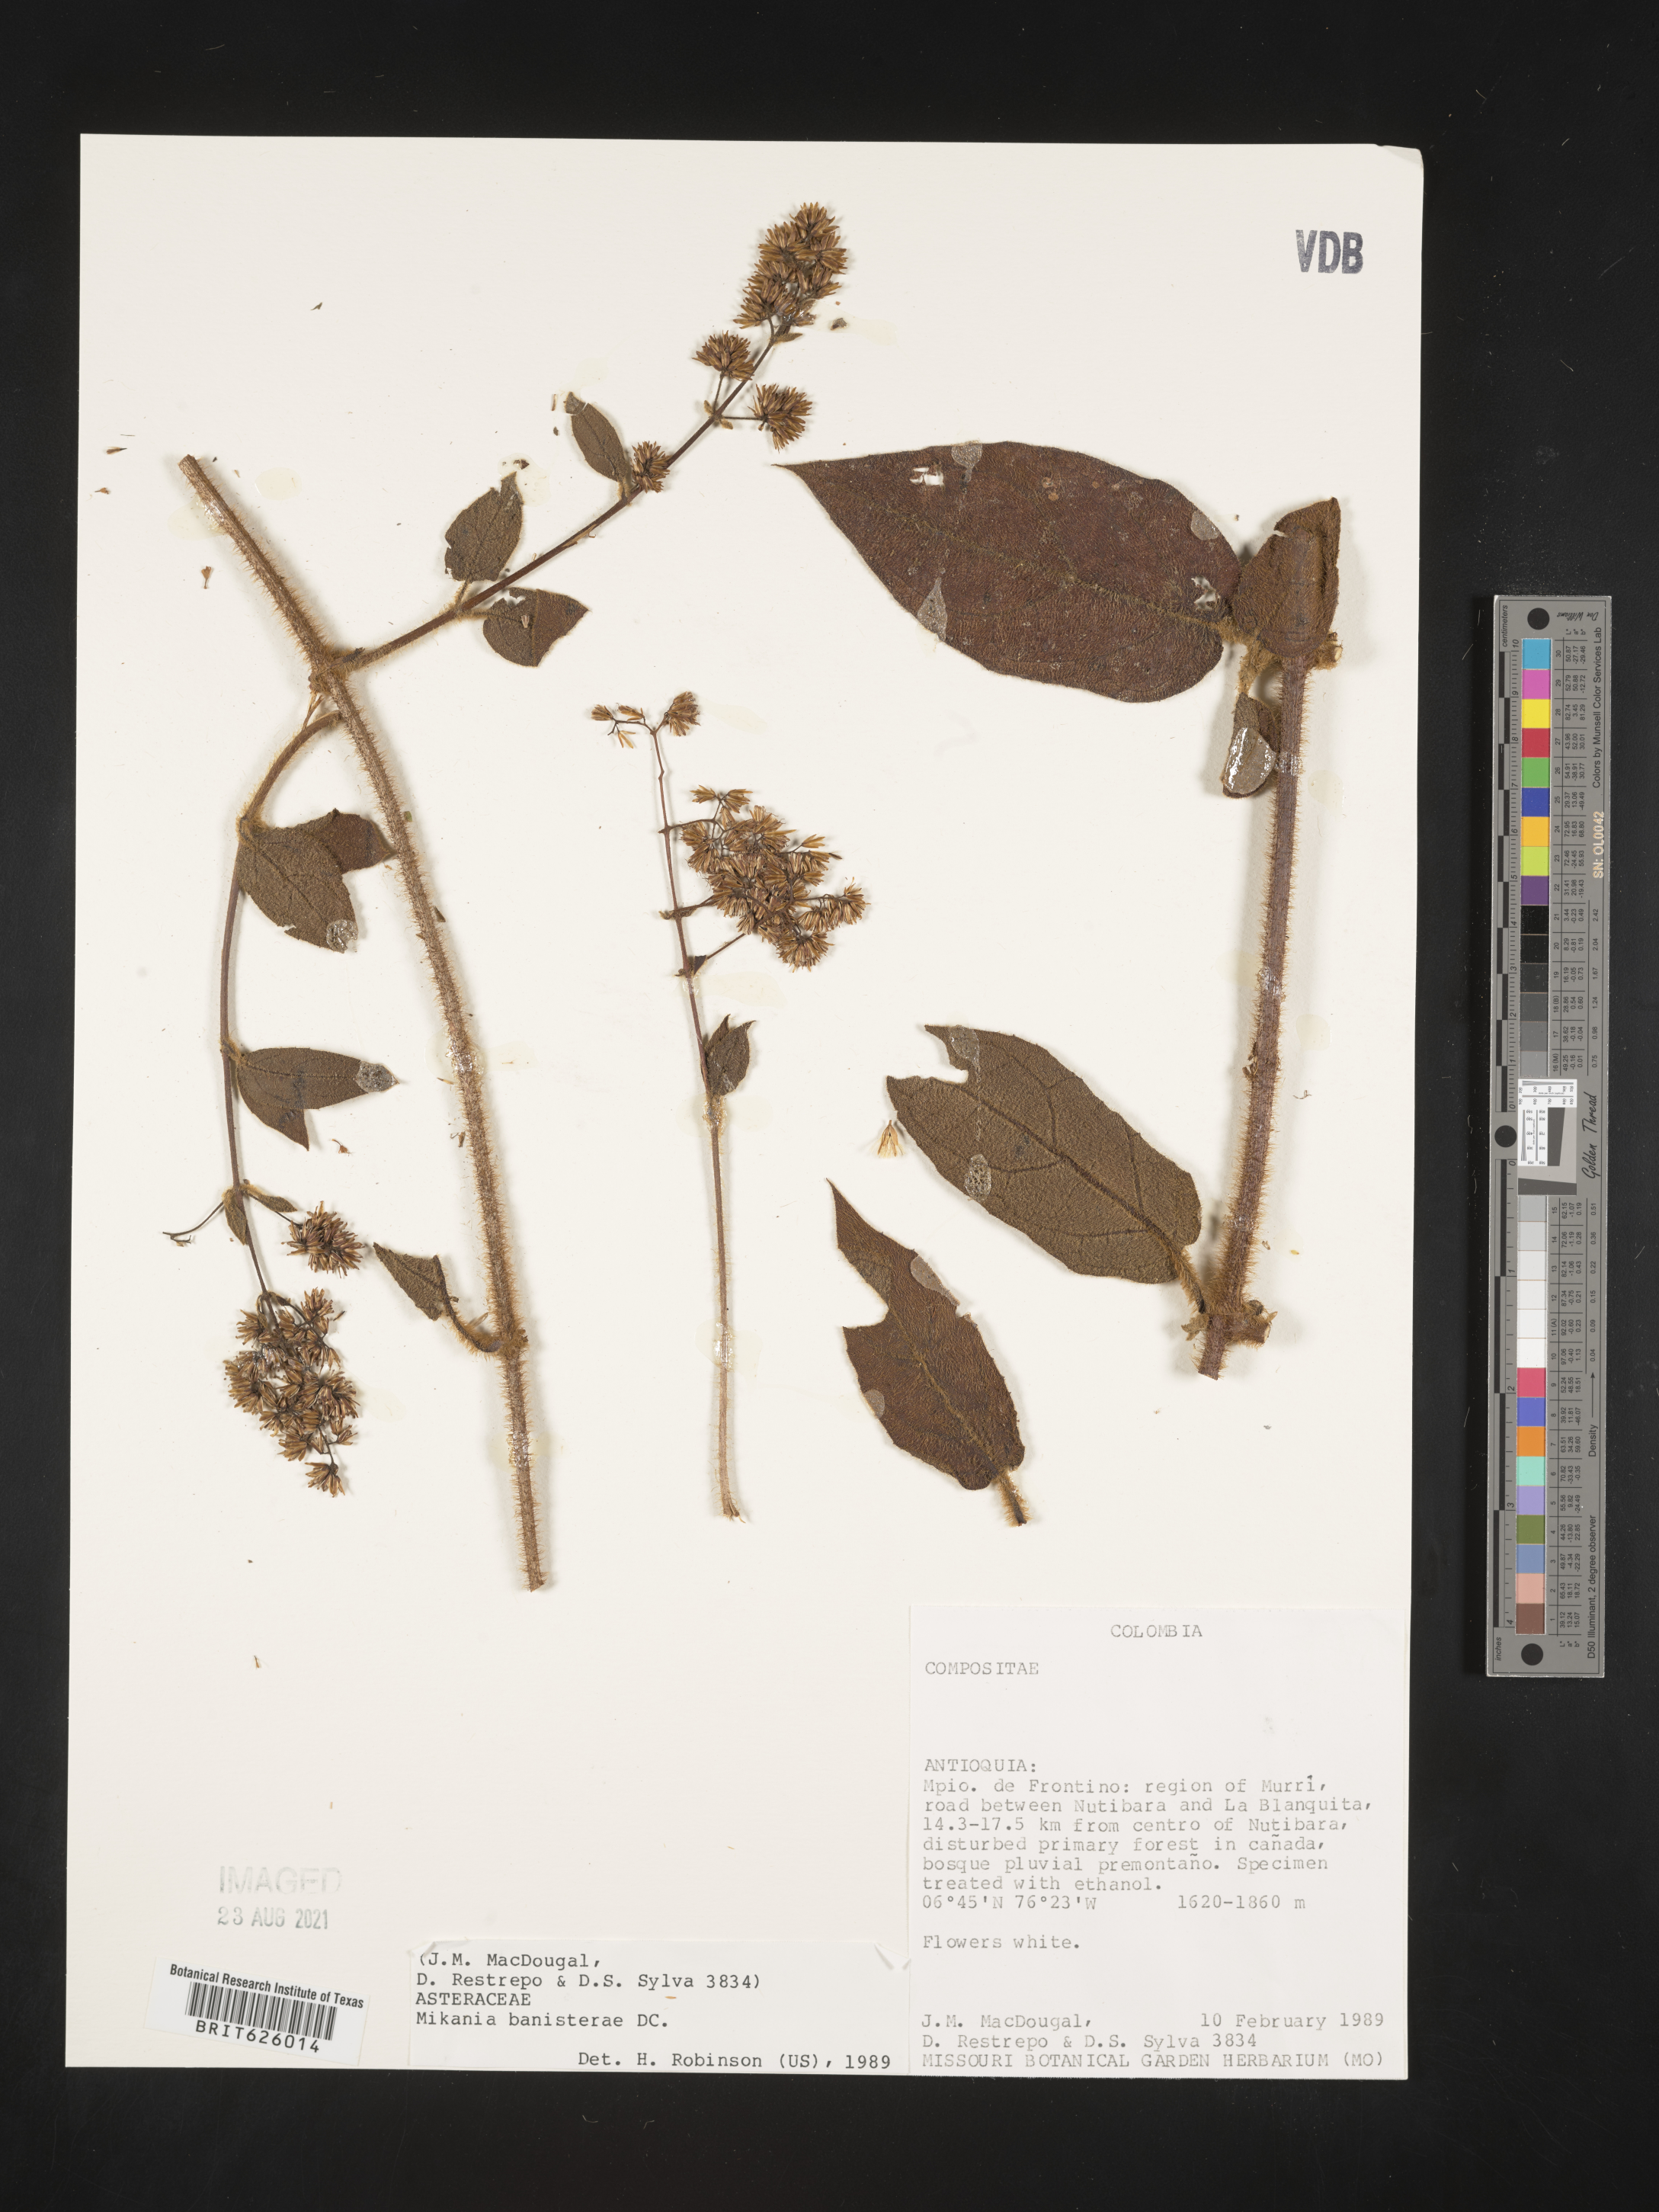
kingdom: Plantae
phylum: Tracheophyta
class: Magnoliopsida
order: Asterales
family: Asteraceae
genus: Mikania
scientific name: Mikania banisteriae
